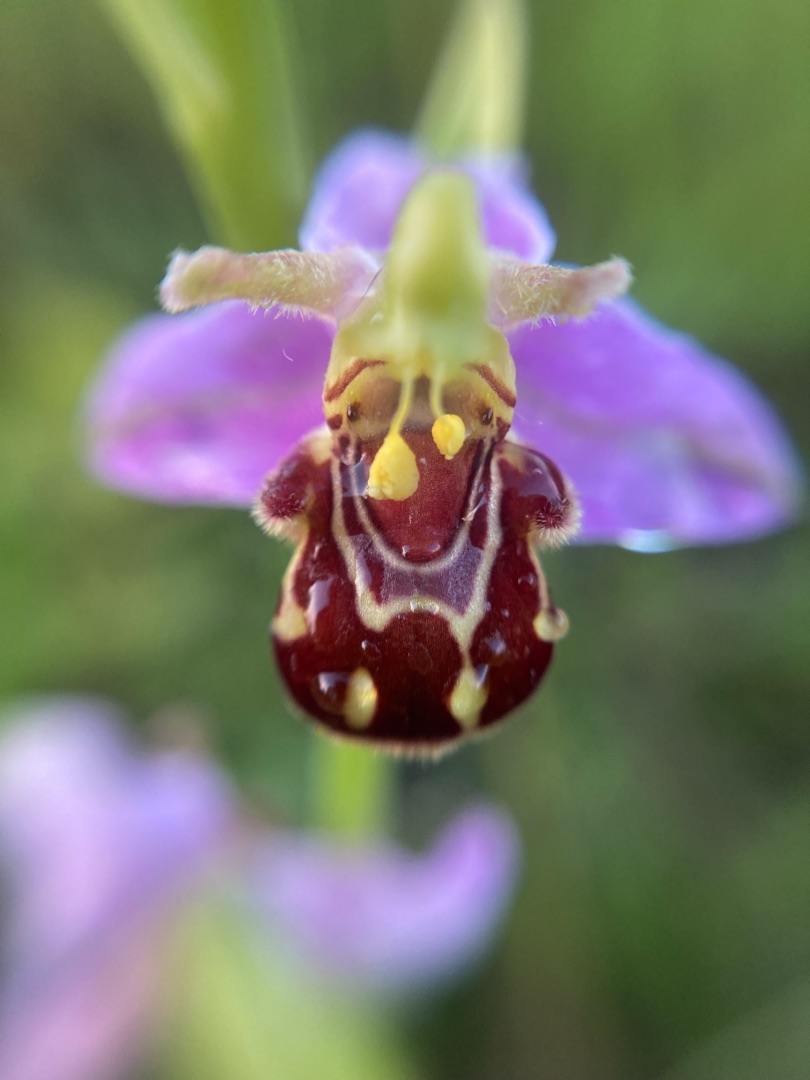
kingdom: Plantae
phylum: Tracheophyta
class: Liliopsida
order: Asparagales
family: Orchidaceae
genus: Ophrys
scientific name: Ophrys apifera
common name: Biblomst
